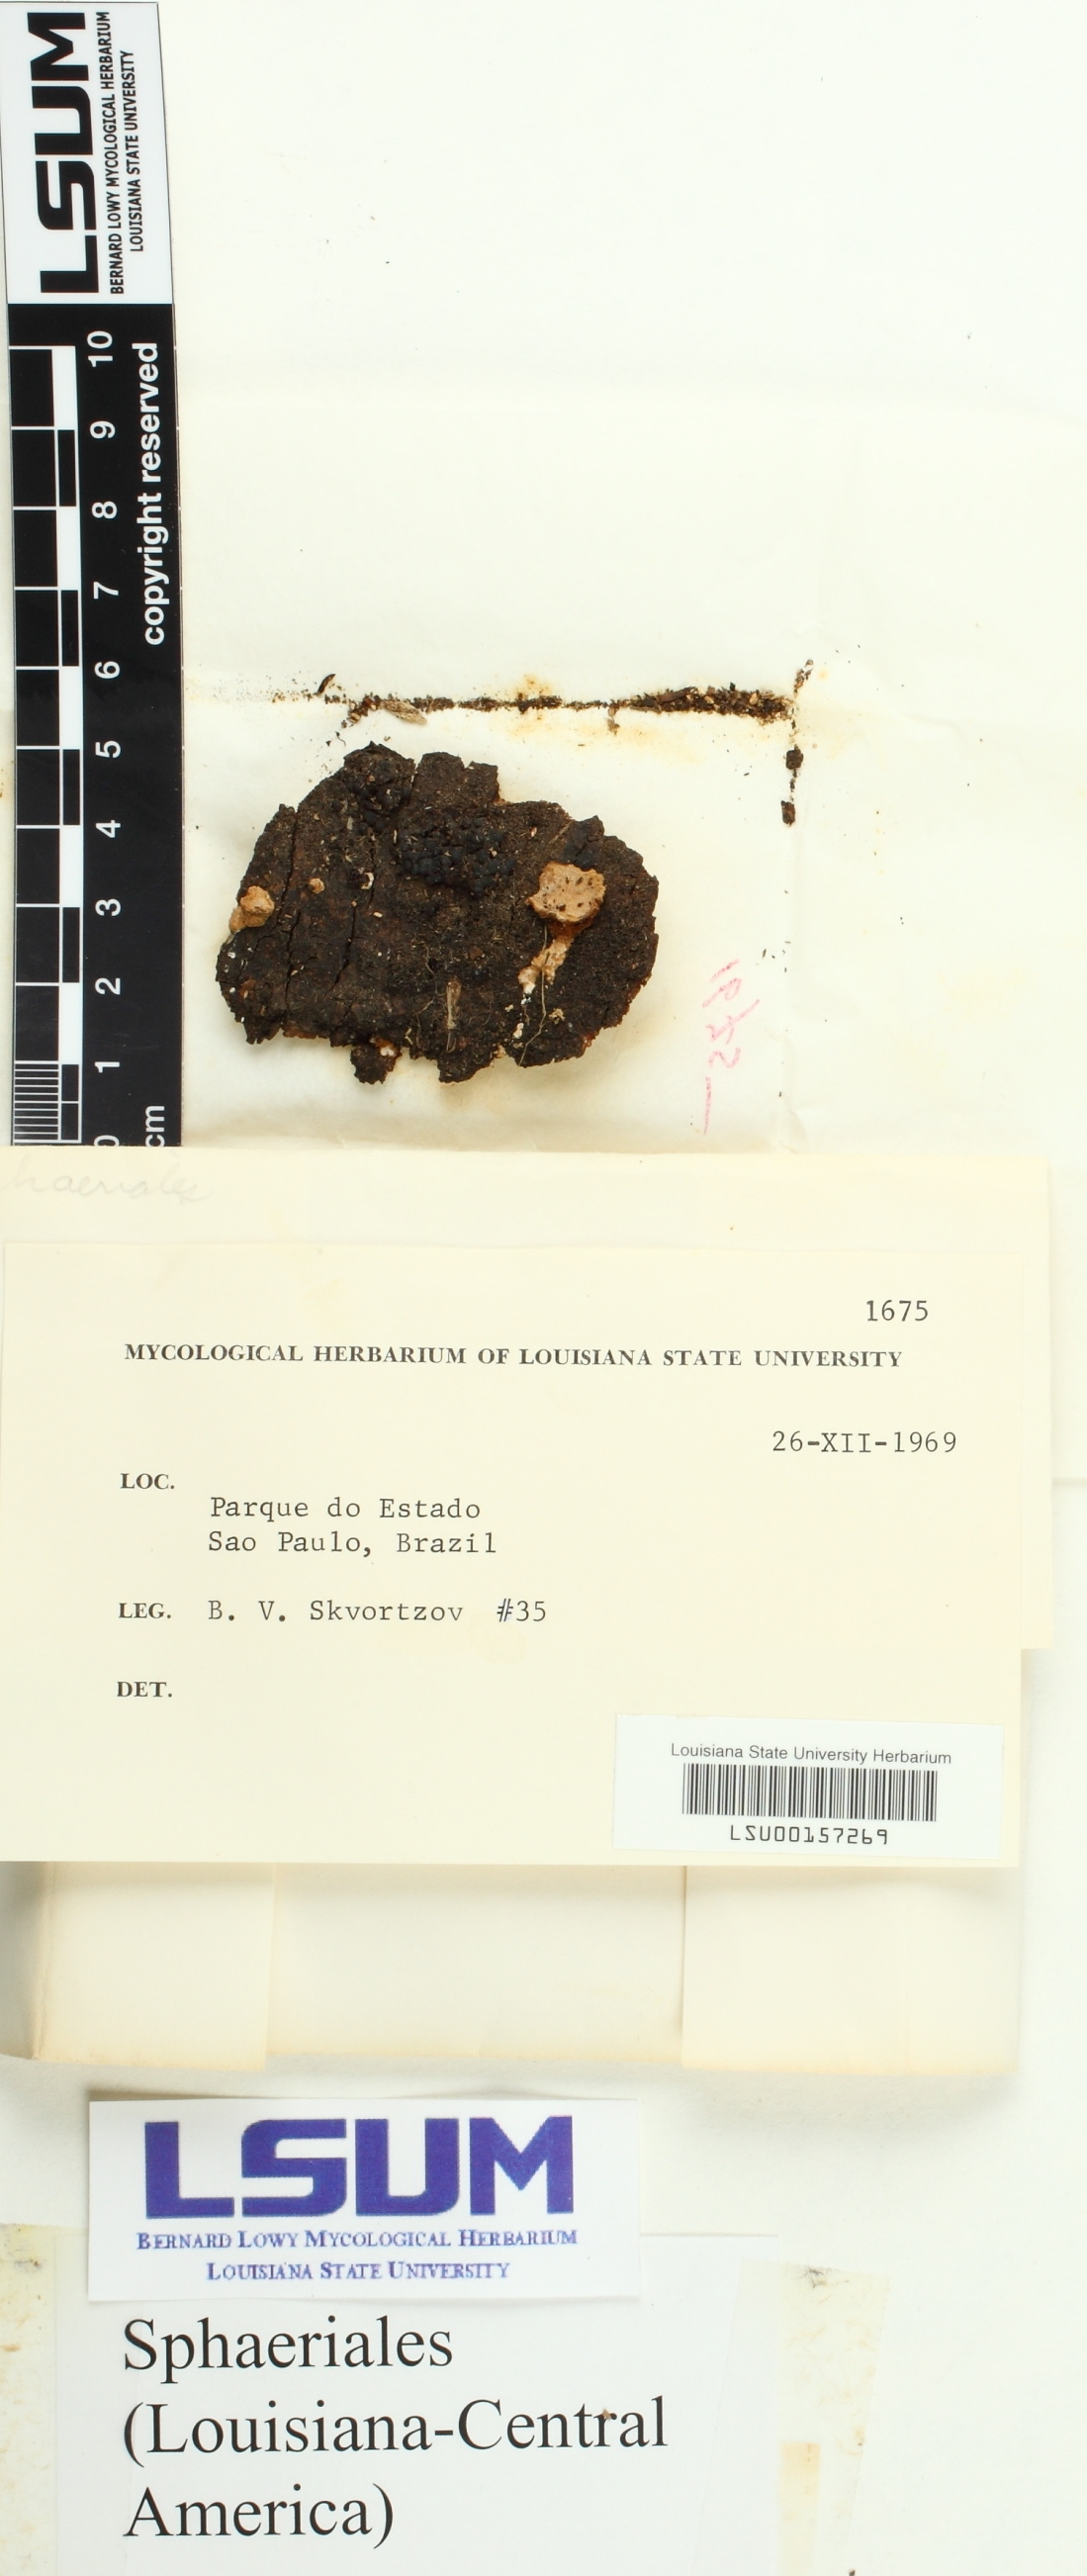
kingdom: Fungi
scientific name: Fungi
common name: Fungi
